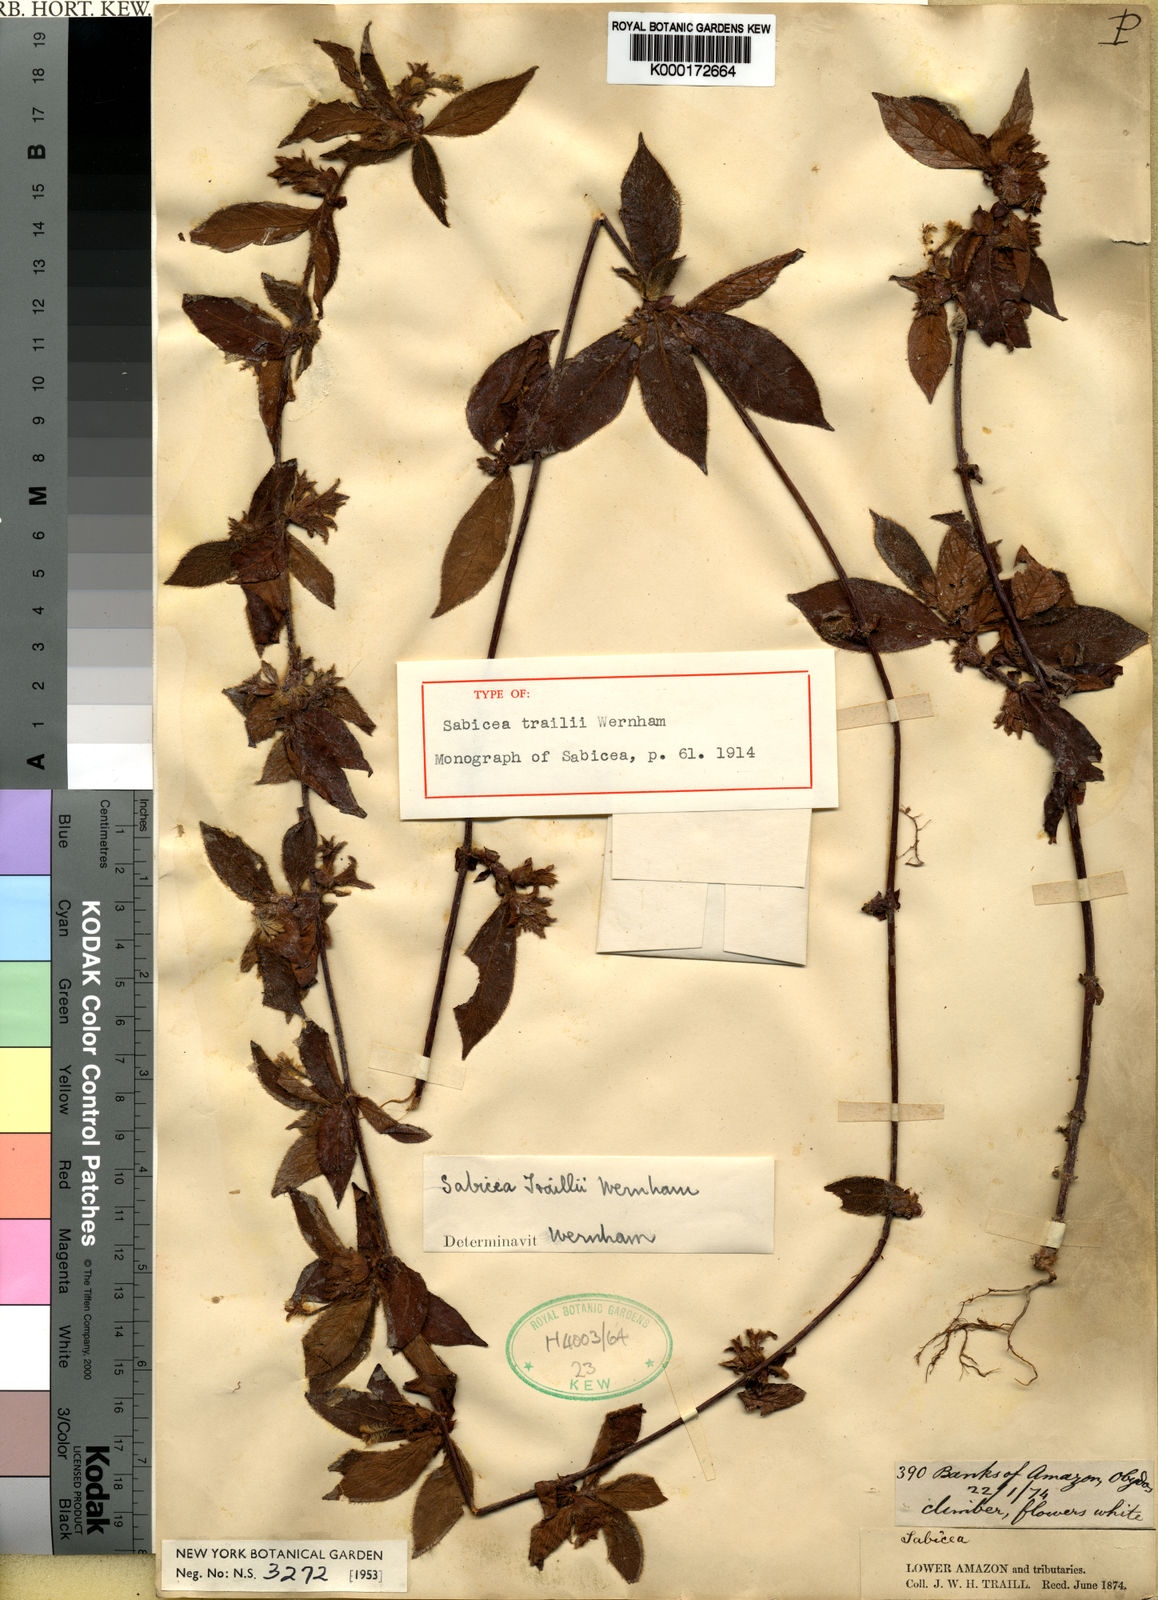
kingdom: Plantae
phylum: Tracheophyta
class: Magnoliopsida
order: Gentianales
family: Rubiaceae
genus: Sabicea
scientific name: Sabicea trailii
